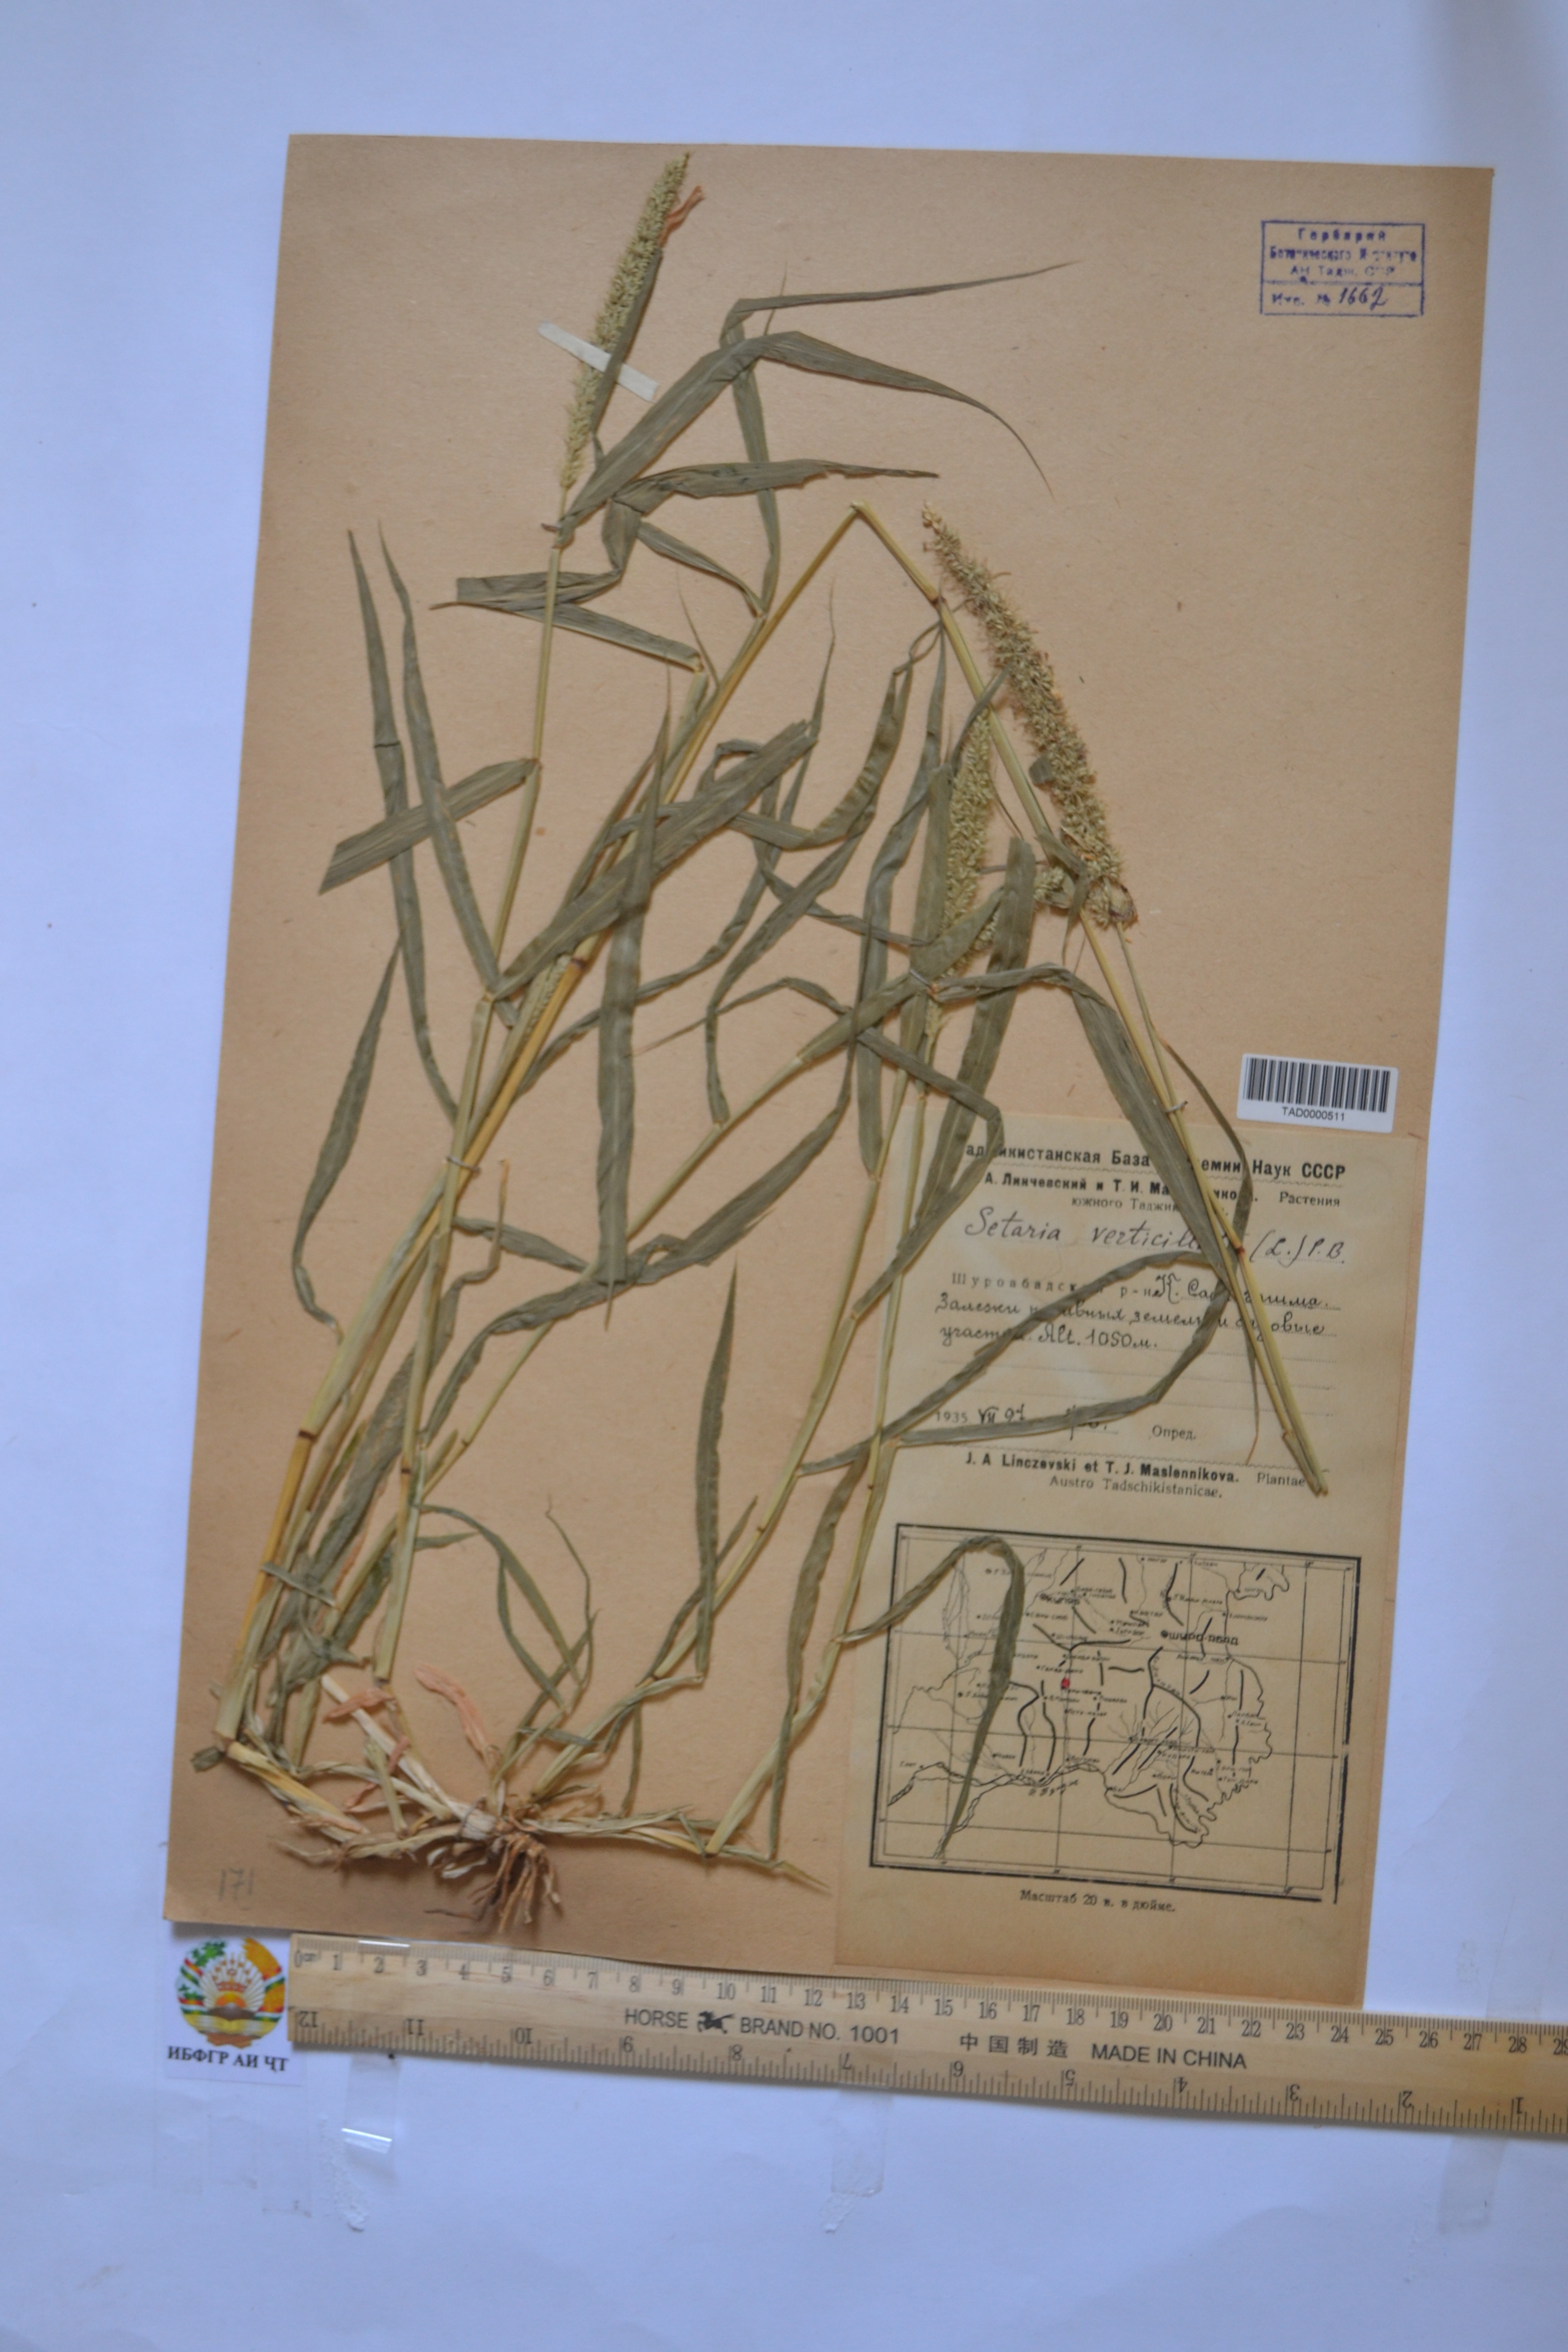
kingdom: Plantae
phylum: Tracheophyta
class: Liliopsida
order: Poales
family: Poaceae
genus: Setaria
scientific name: Setaria verticillata
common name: Hooked bristlegrass
